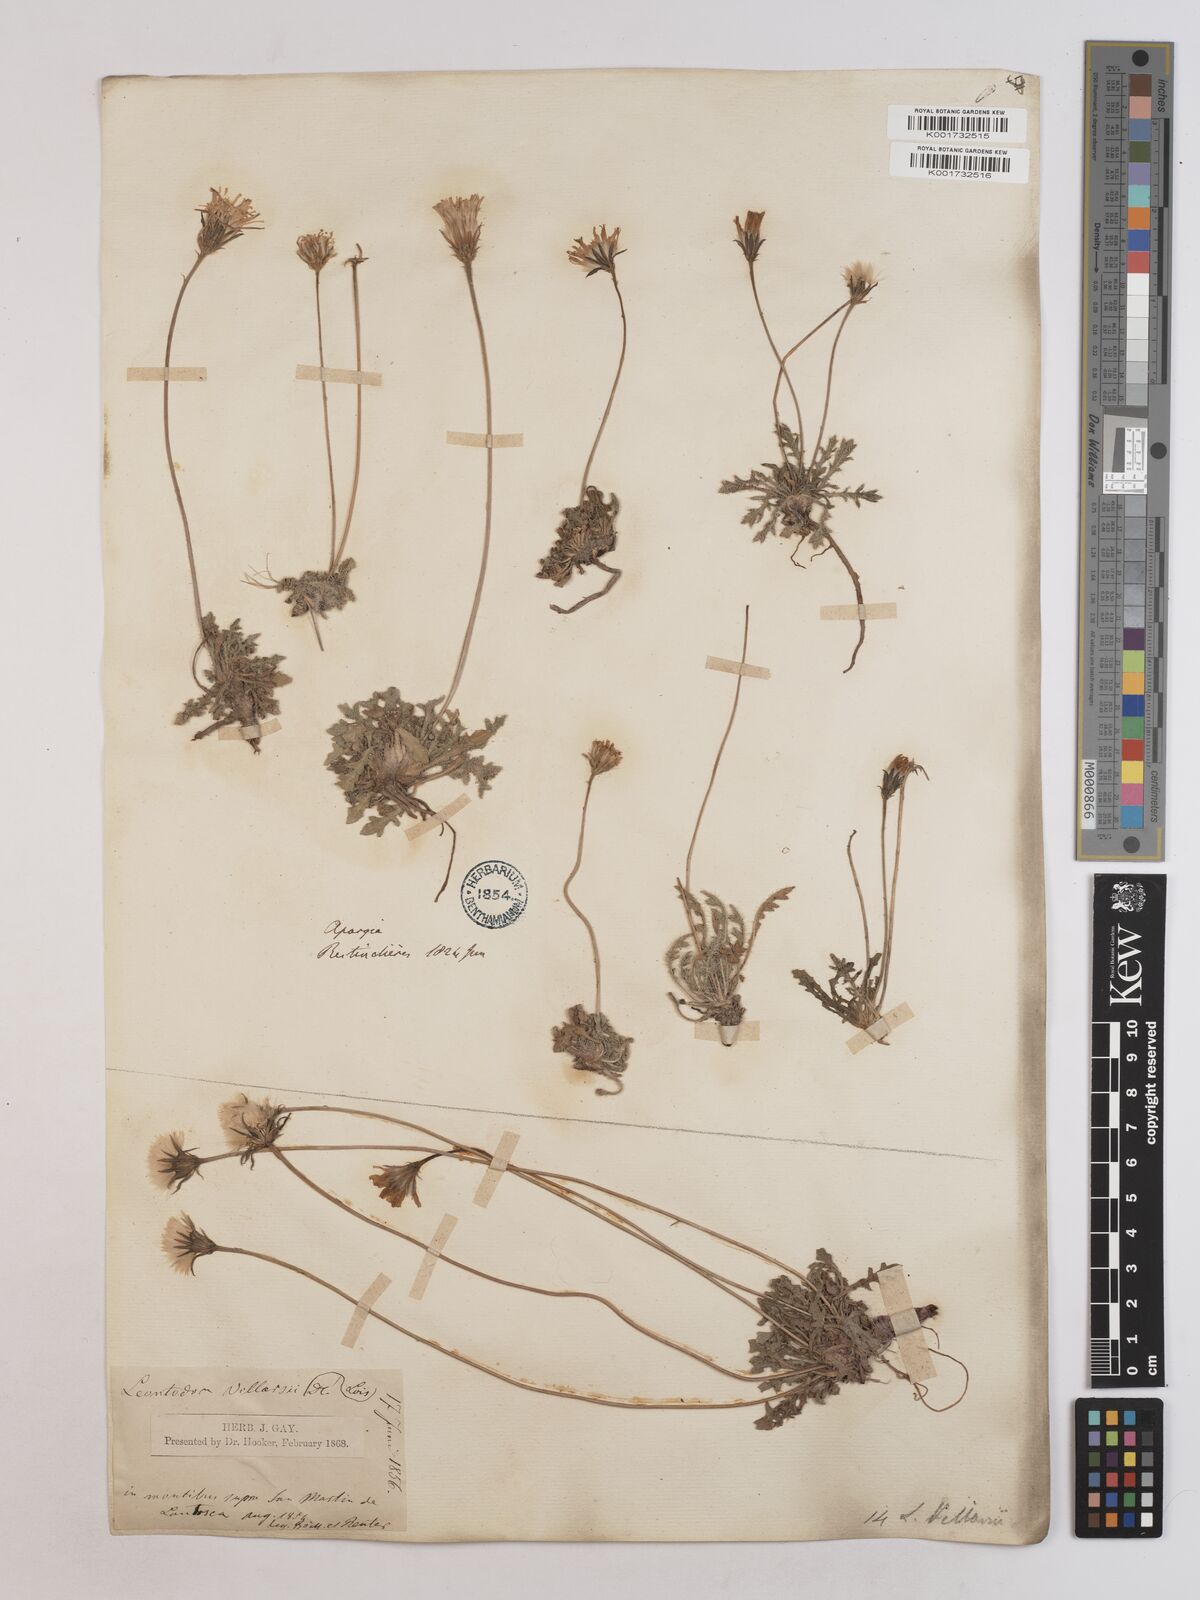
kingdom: Plantae
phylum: Tracheophyta
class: Magnoliopsida
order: Asterales
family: Asteraceae
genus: Leontodon
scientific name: Leontodon hirtus
